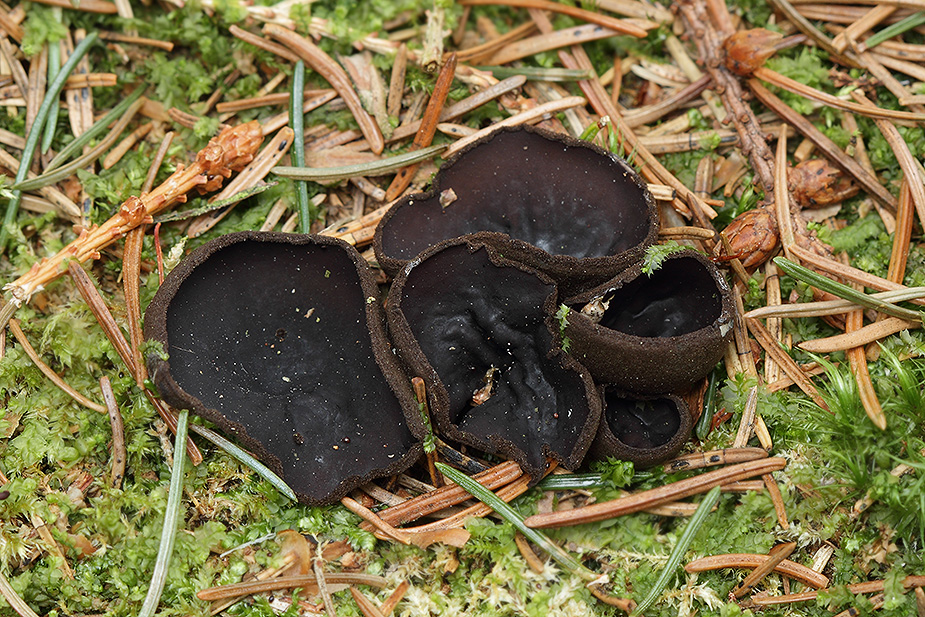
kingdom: Fungi
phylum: Ascomycota
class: Pezizomycetes
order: Pezizales
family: Sarcosomataceae
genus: Pseudoplectania
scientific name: Pseudoplectania nigrella
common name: almindelig sortbæger
